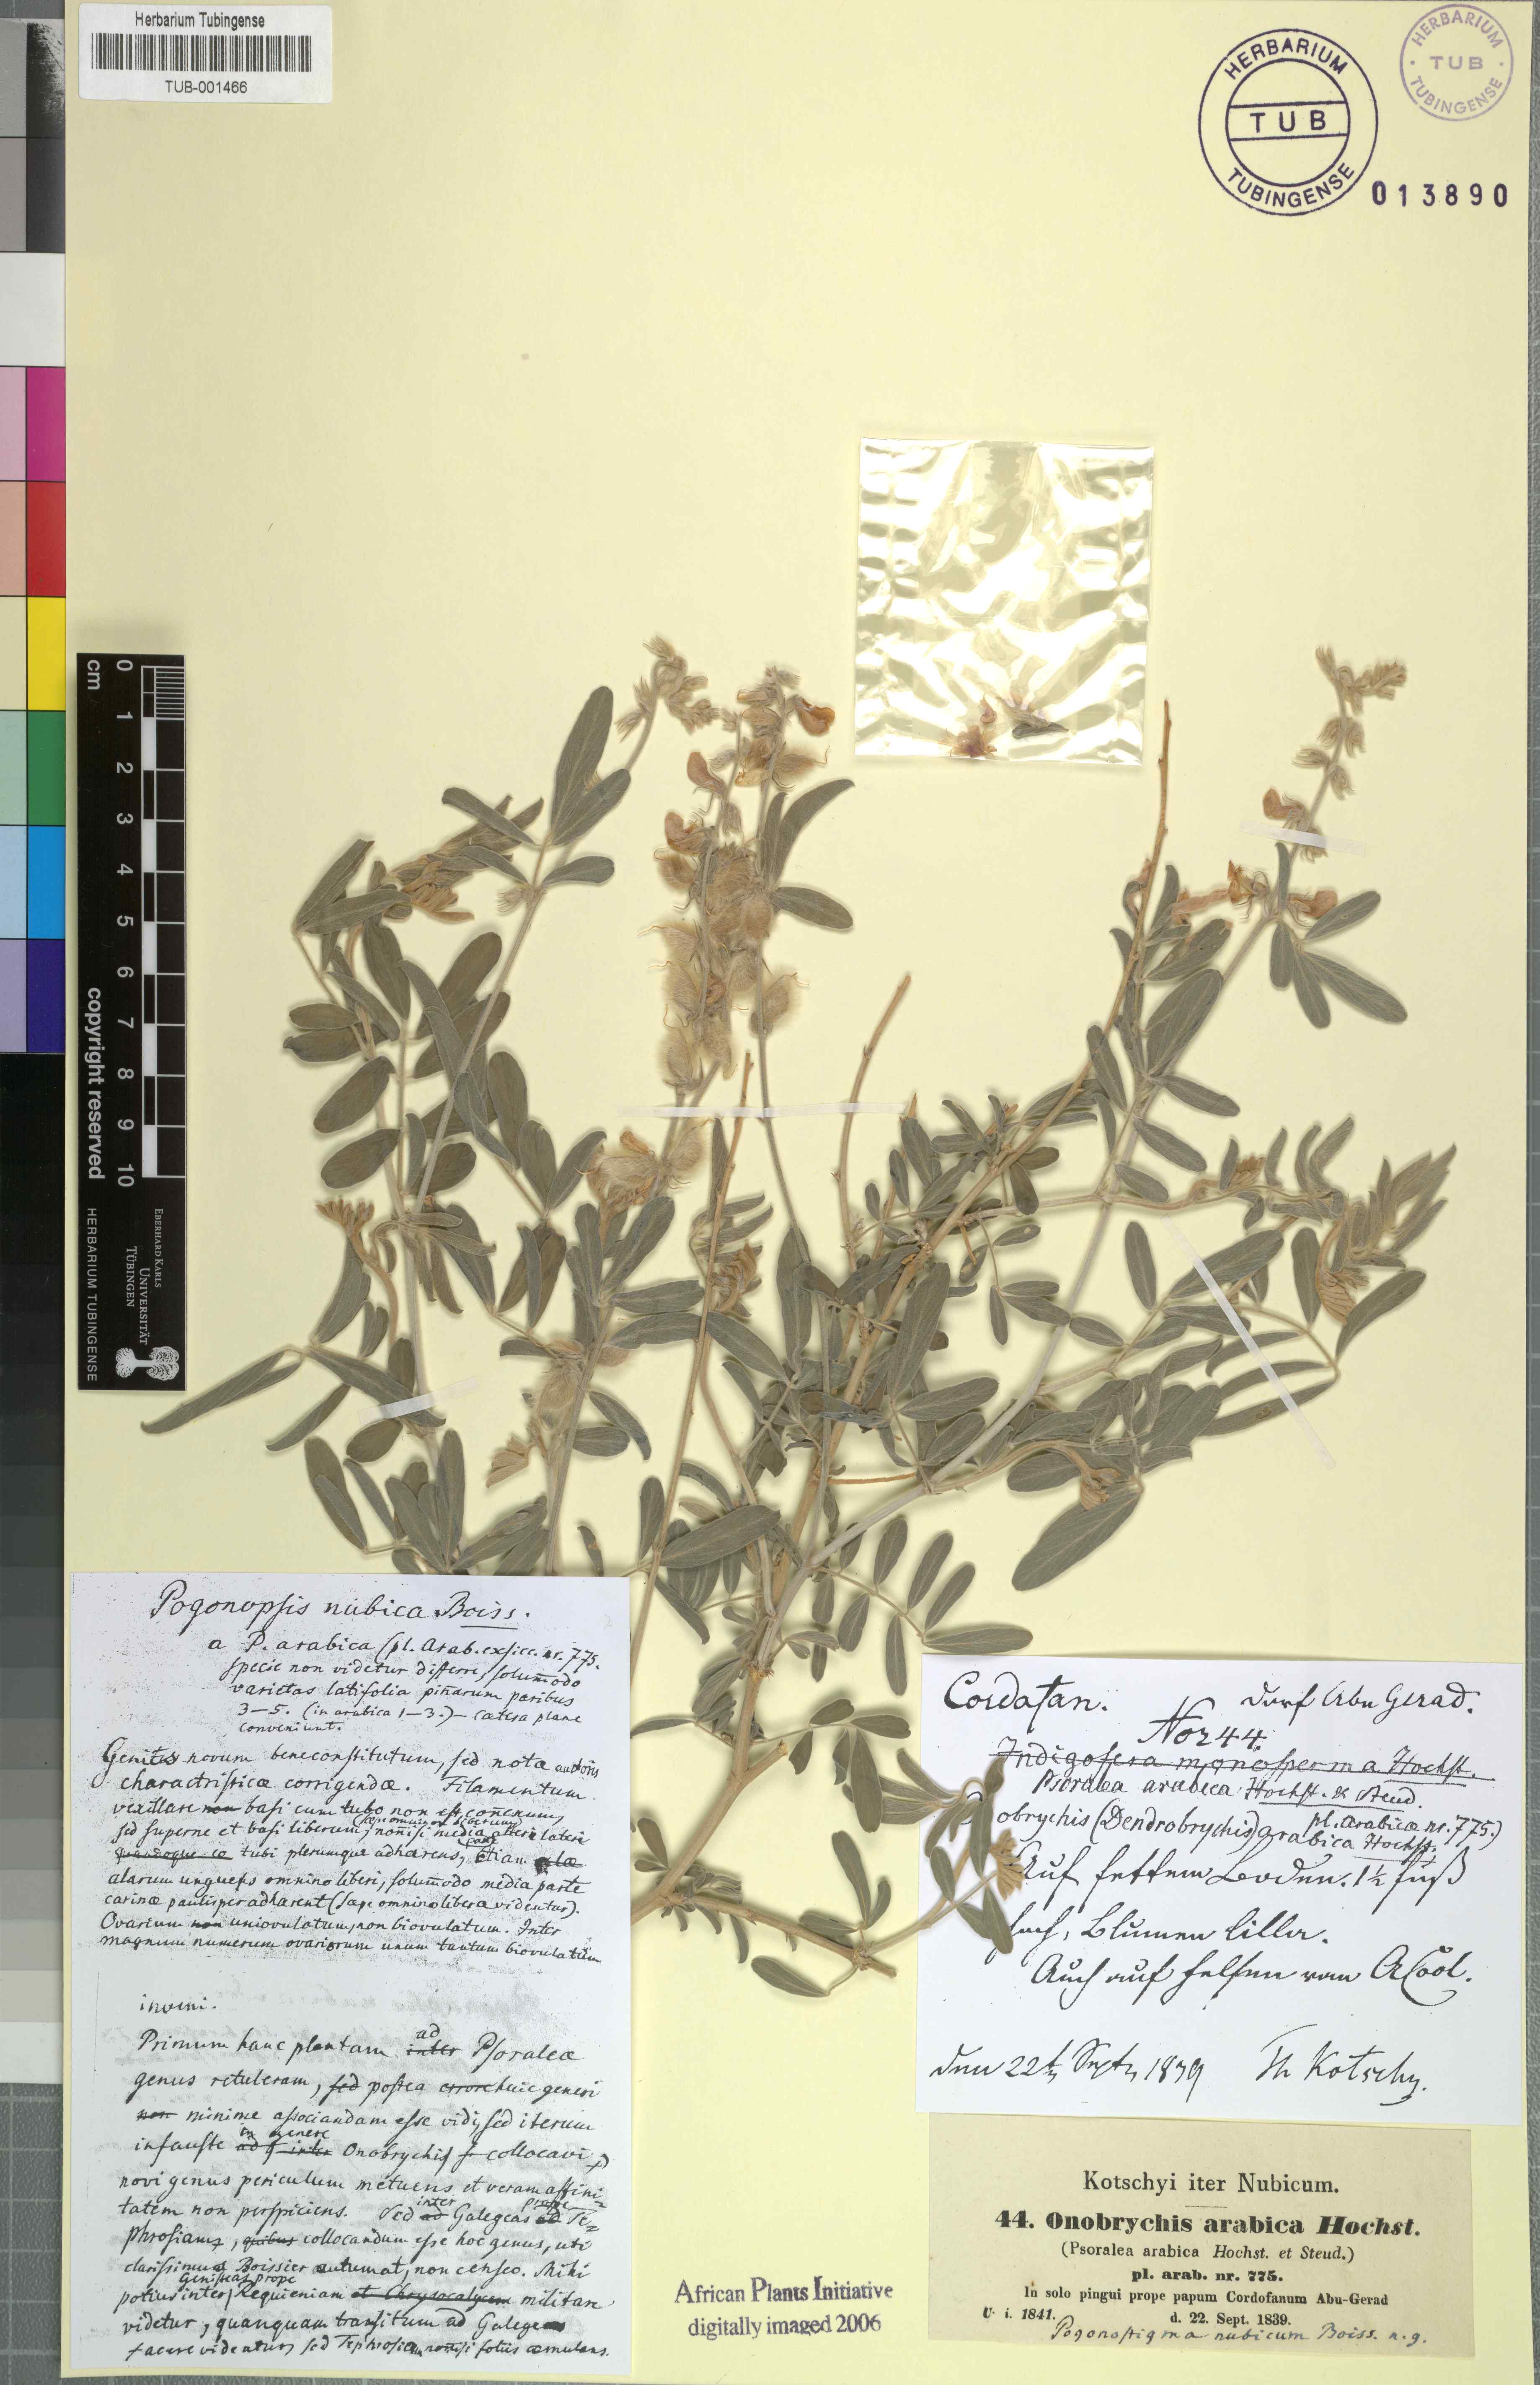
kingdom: Plantae
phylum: Tracheophyta
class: Magnoliopsida
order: Fabales
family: Fabaceae
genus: Onobrychis
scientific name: Onobrychis
